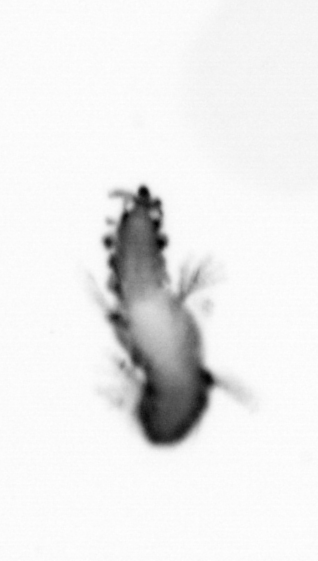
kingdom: Animalia
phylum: Annelida
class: Polychaeta
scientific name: Polychaeta
